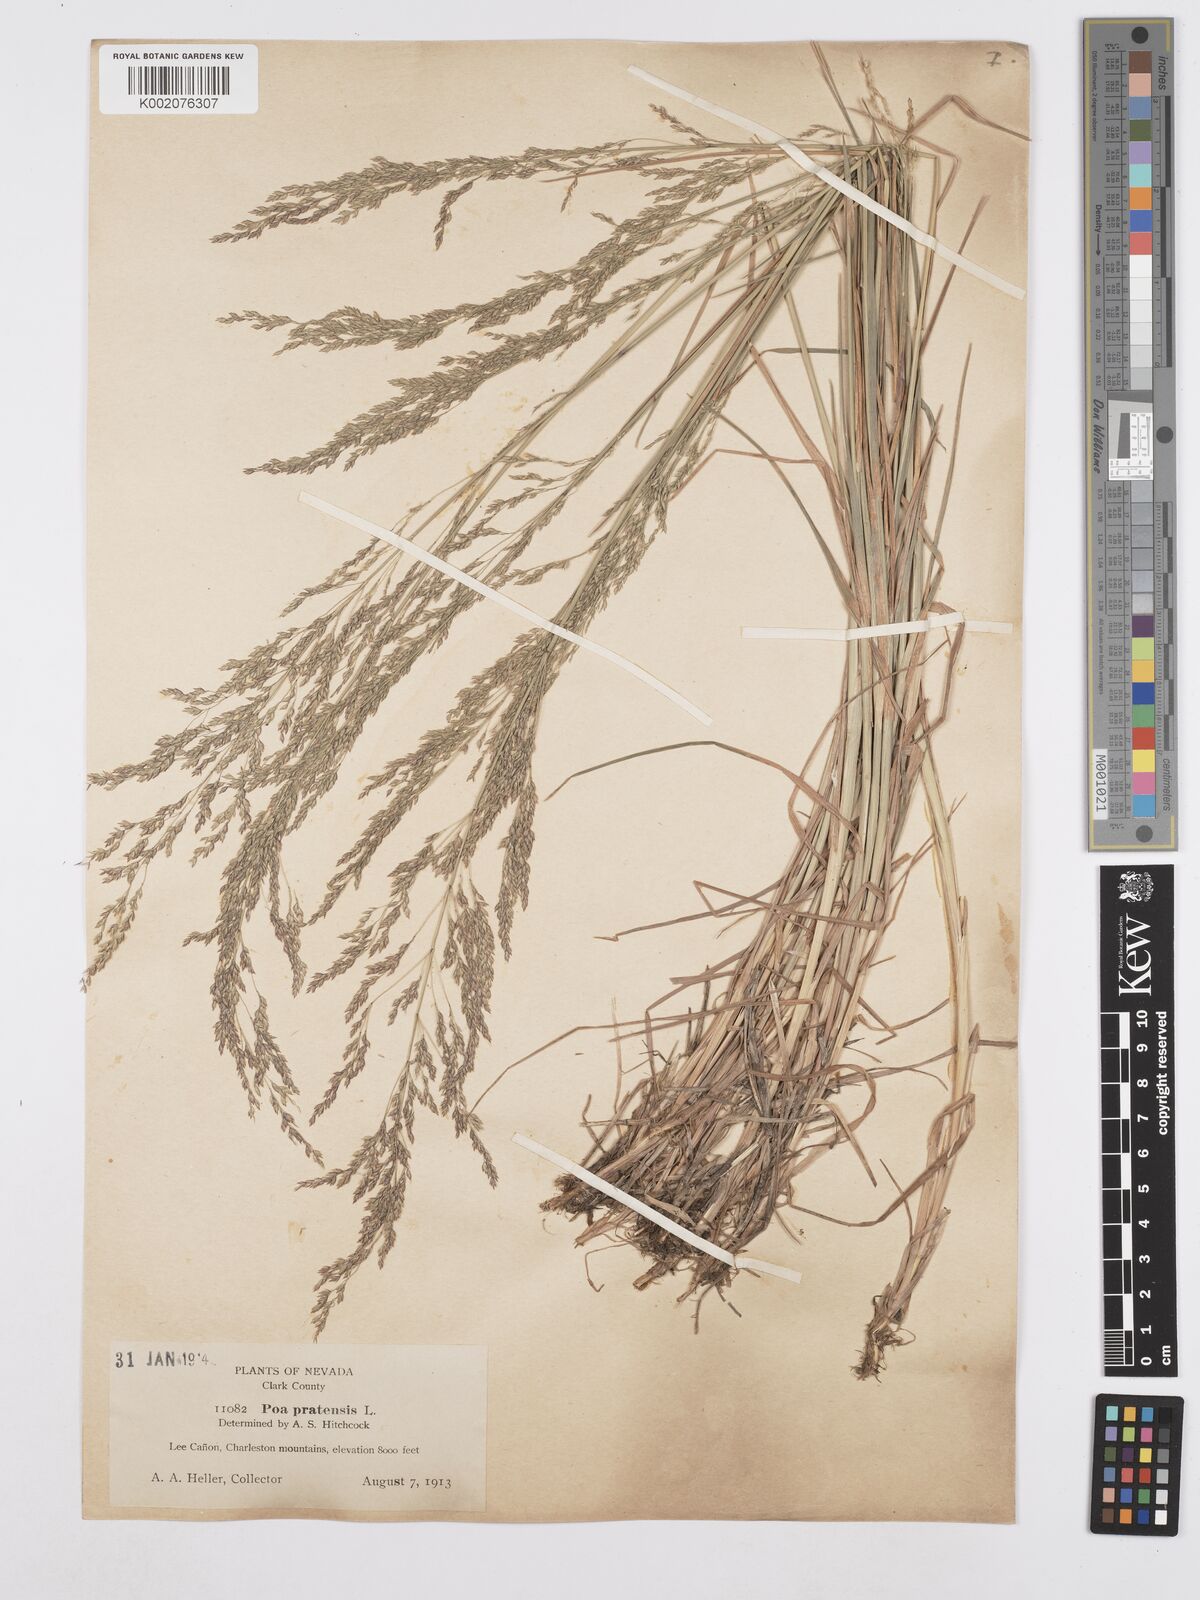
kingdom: Plantae
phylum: Tracheophyta
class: Liliopsida
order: Poales
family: Poaceae
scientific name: Poaceae
